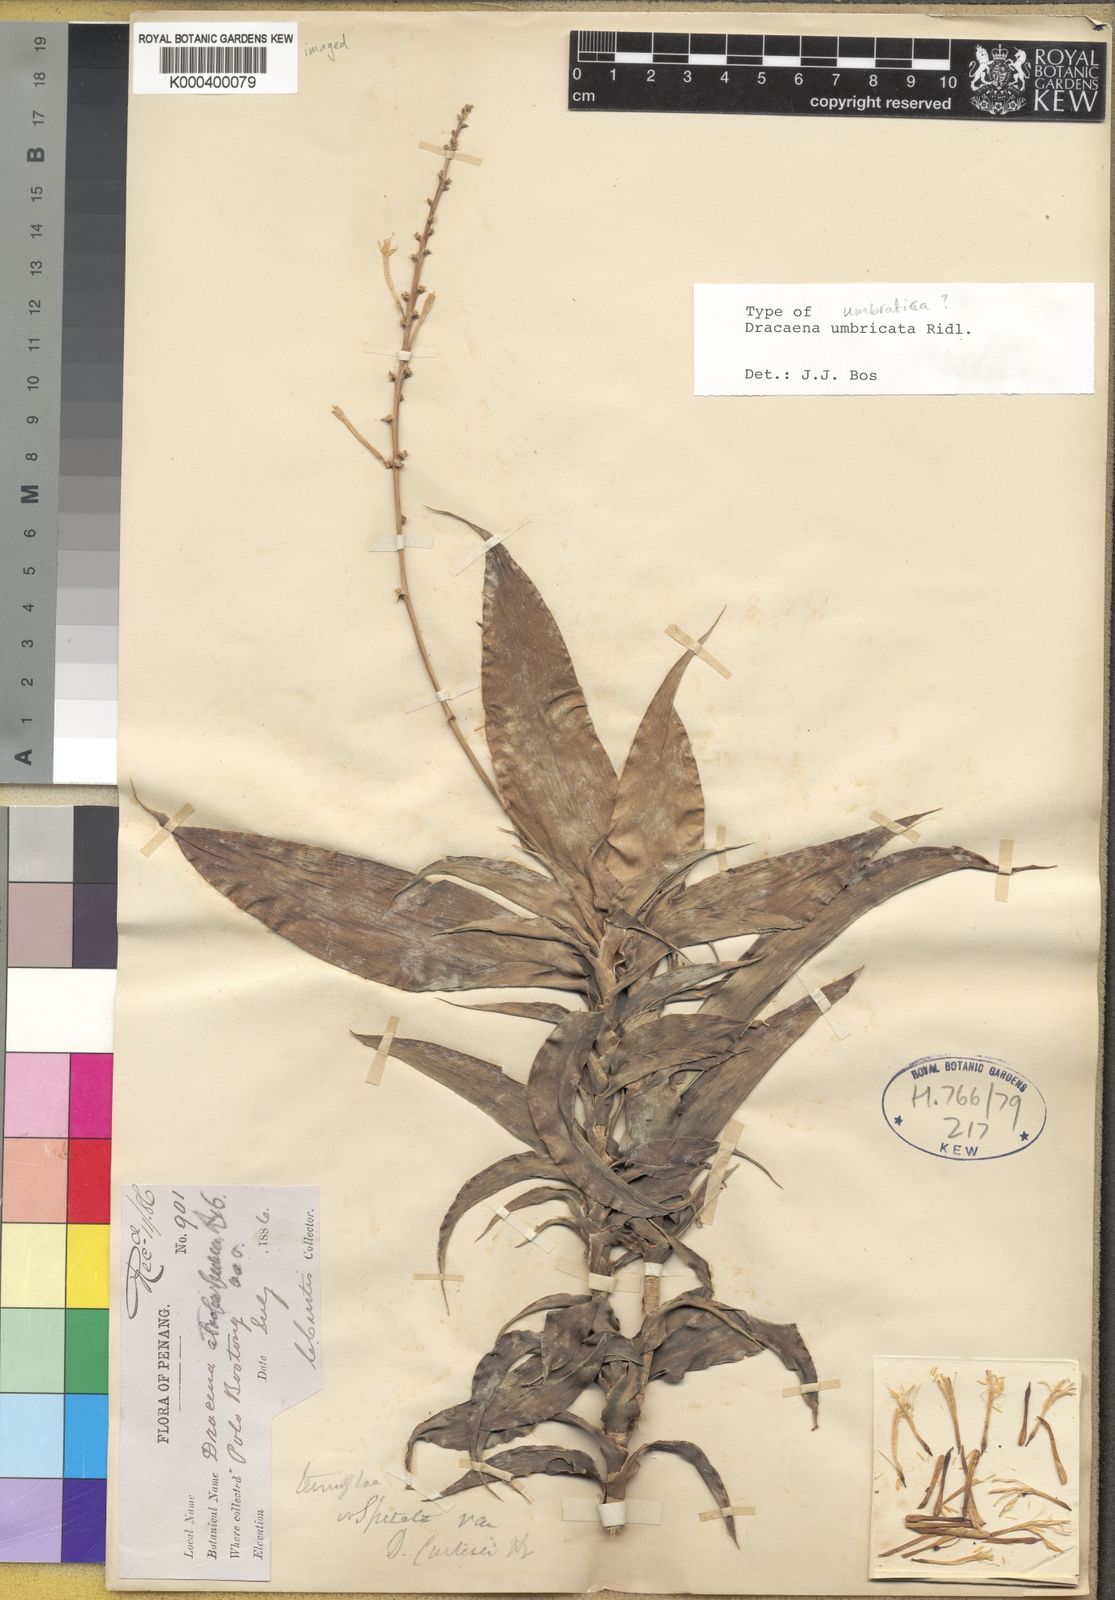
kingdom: Plantae
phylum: Tracheophyta
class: Liliopsida
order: Asparagales
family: Asparagaceae
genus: Dracaena
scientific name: Dracaena umbratica
